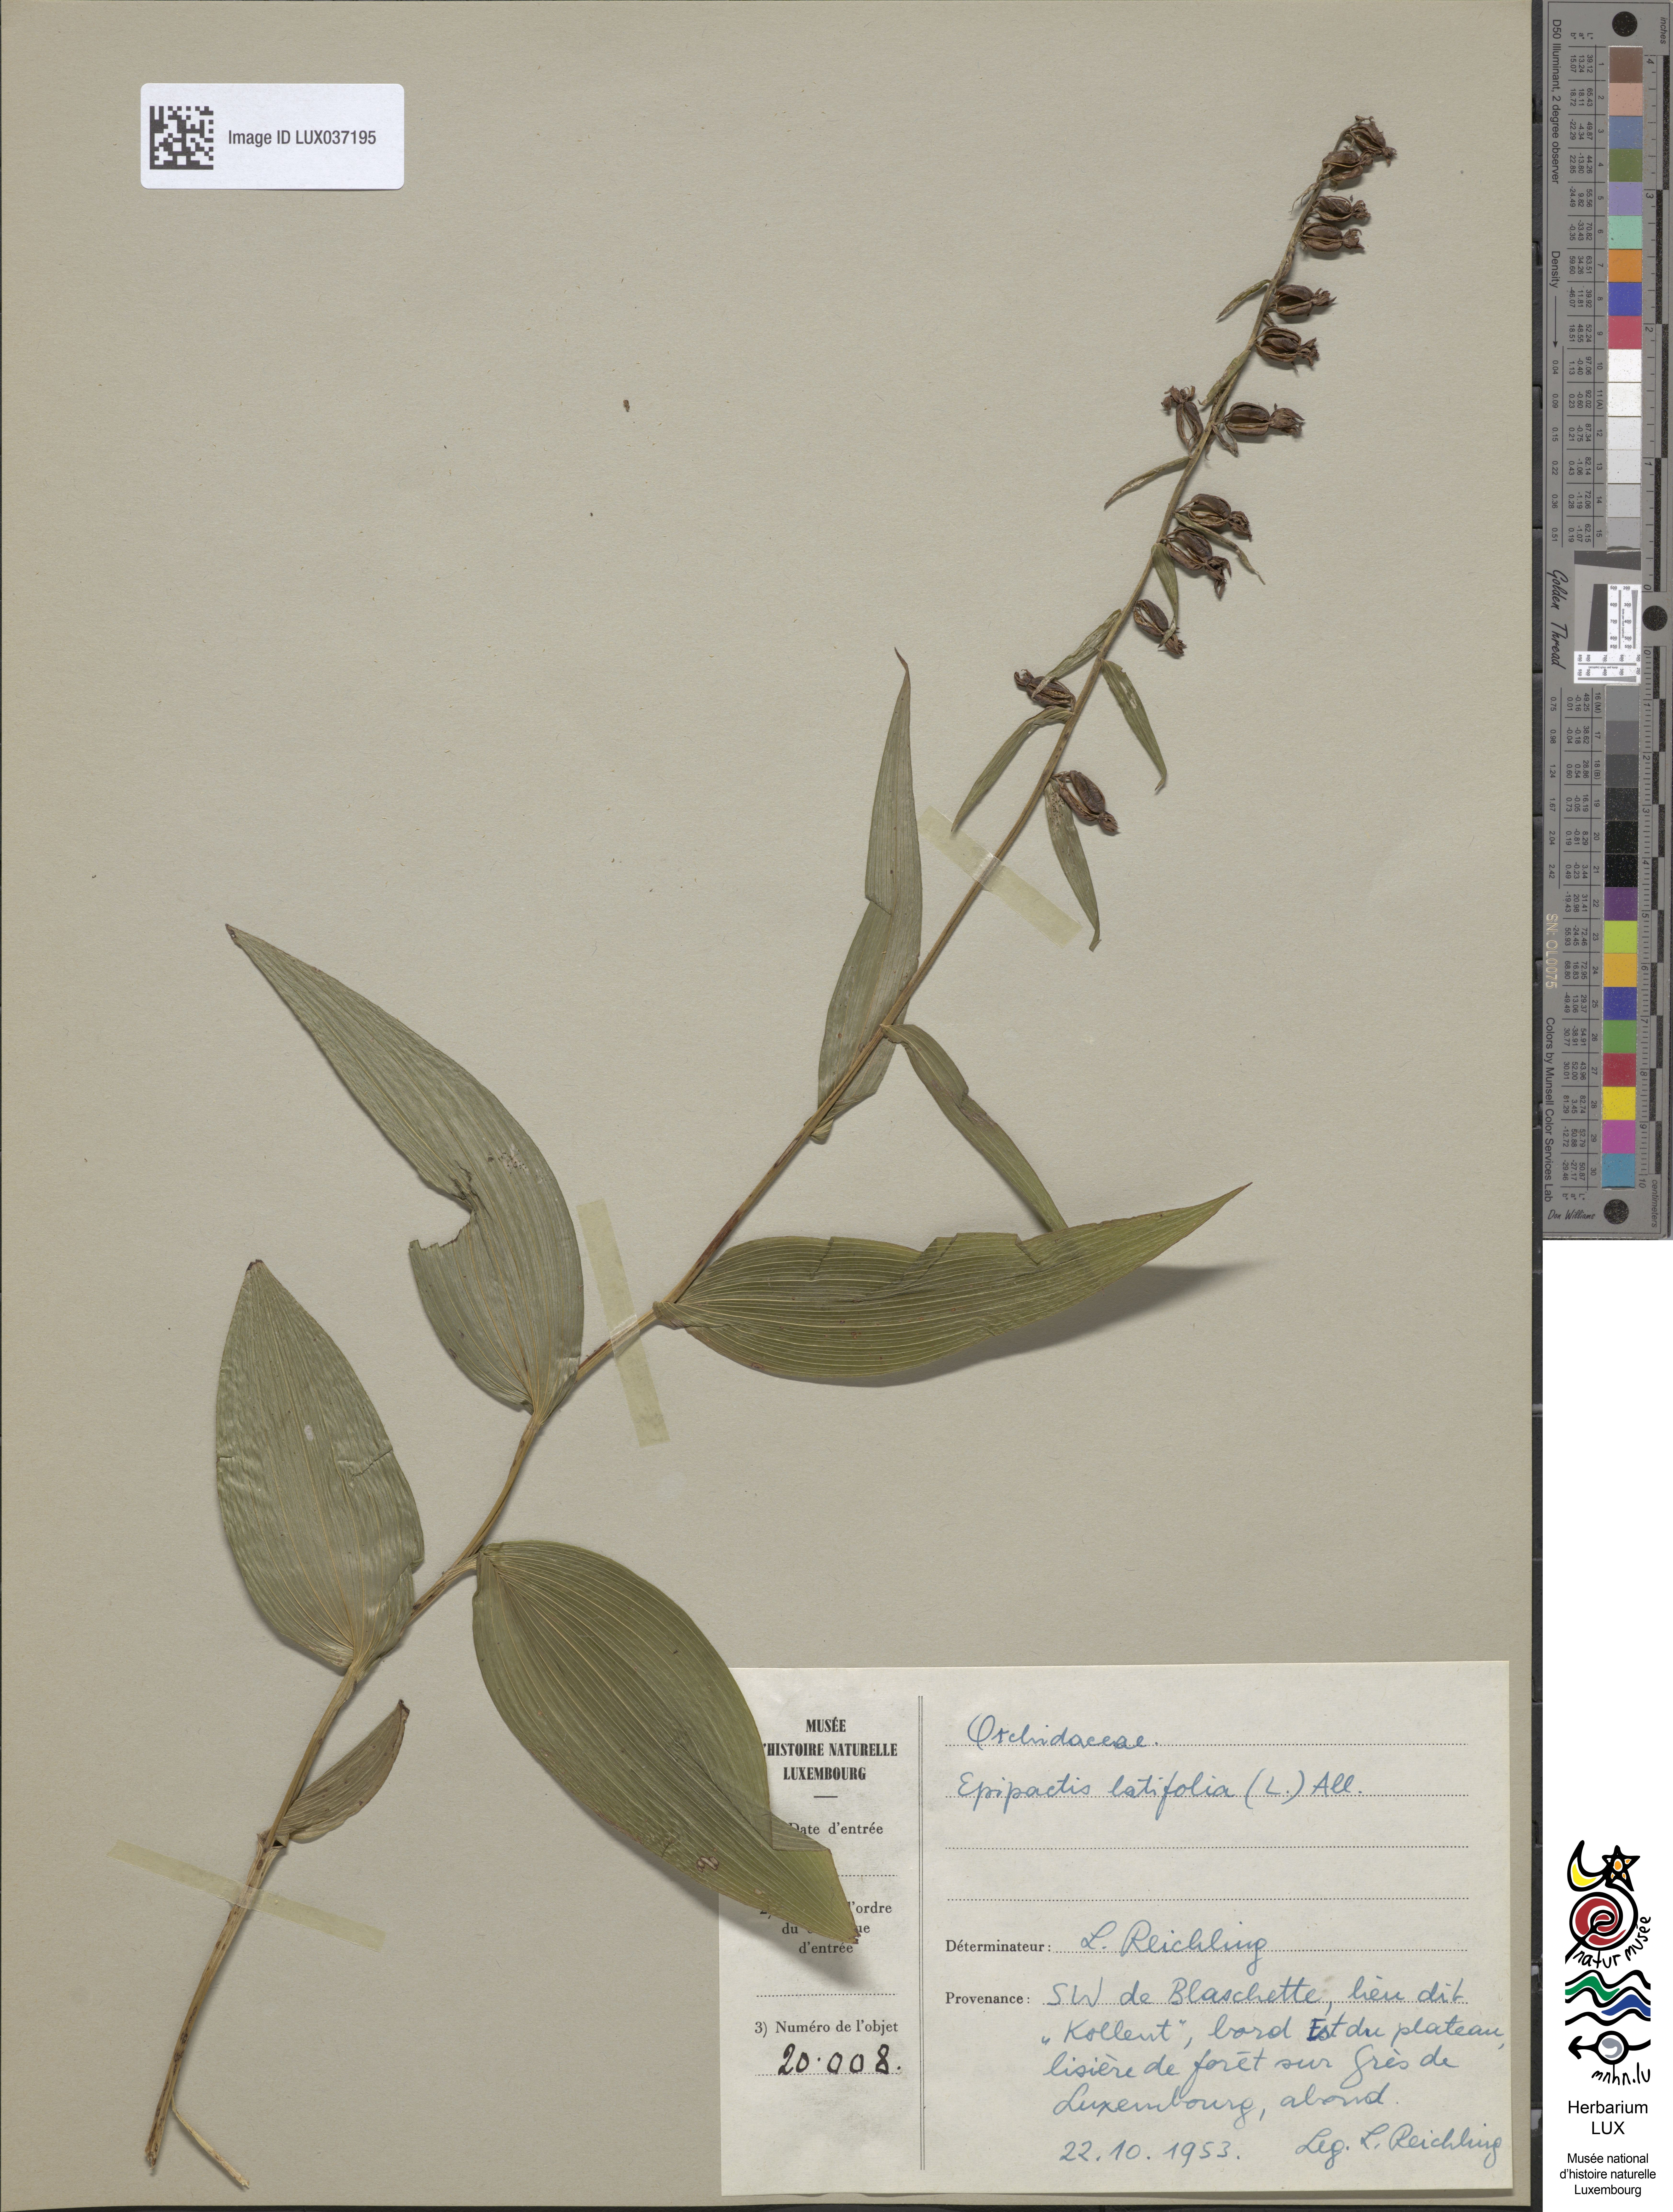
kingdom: Plantae
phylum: Tracheophyta
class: Liliopsida
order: Asparagales
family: Orchidaceae
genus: Epipactis
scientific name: Epipactis helleborine
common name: Broad-leaved helleborine
